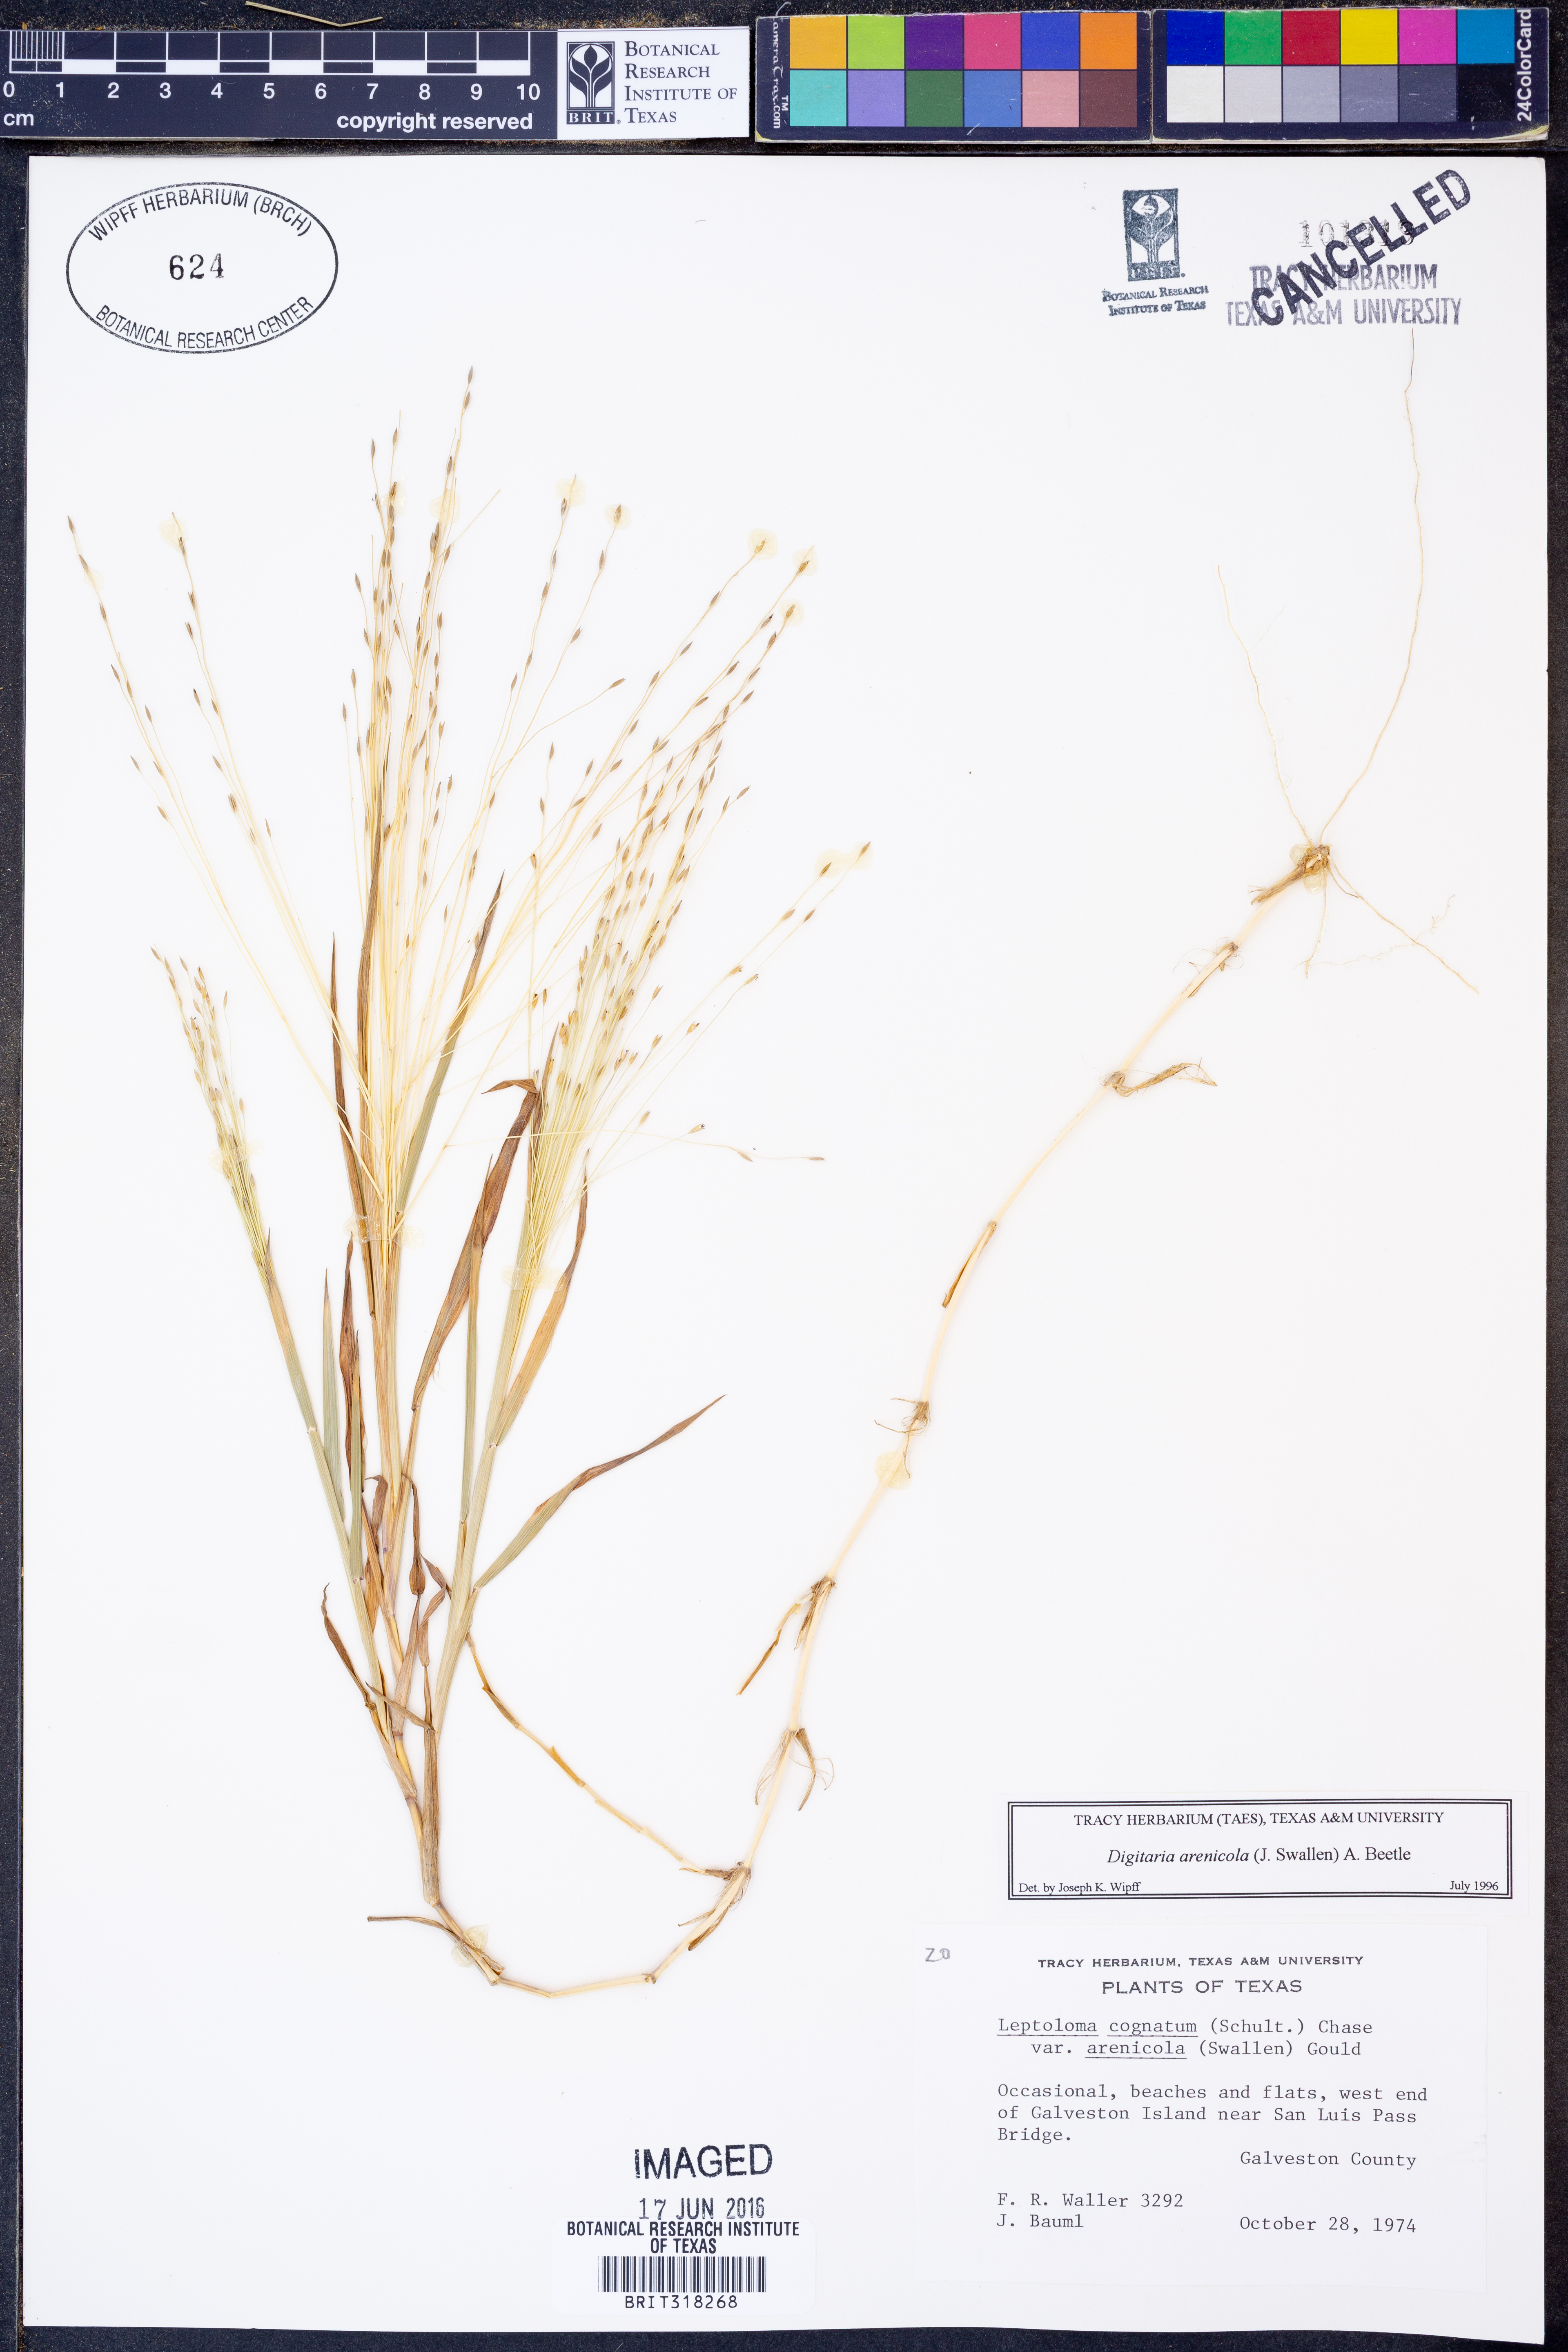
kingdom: Plantae
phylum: Tracheophyta
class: Liliopsida
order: Poales
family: Poaceae
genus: Digitaria
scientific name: Digitaria arenicola
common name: Sand witchgrass
